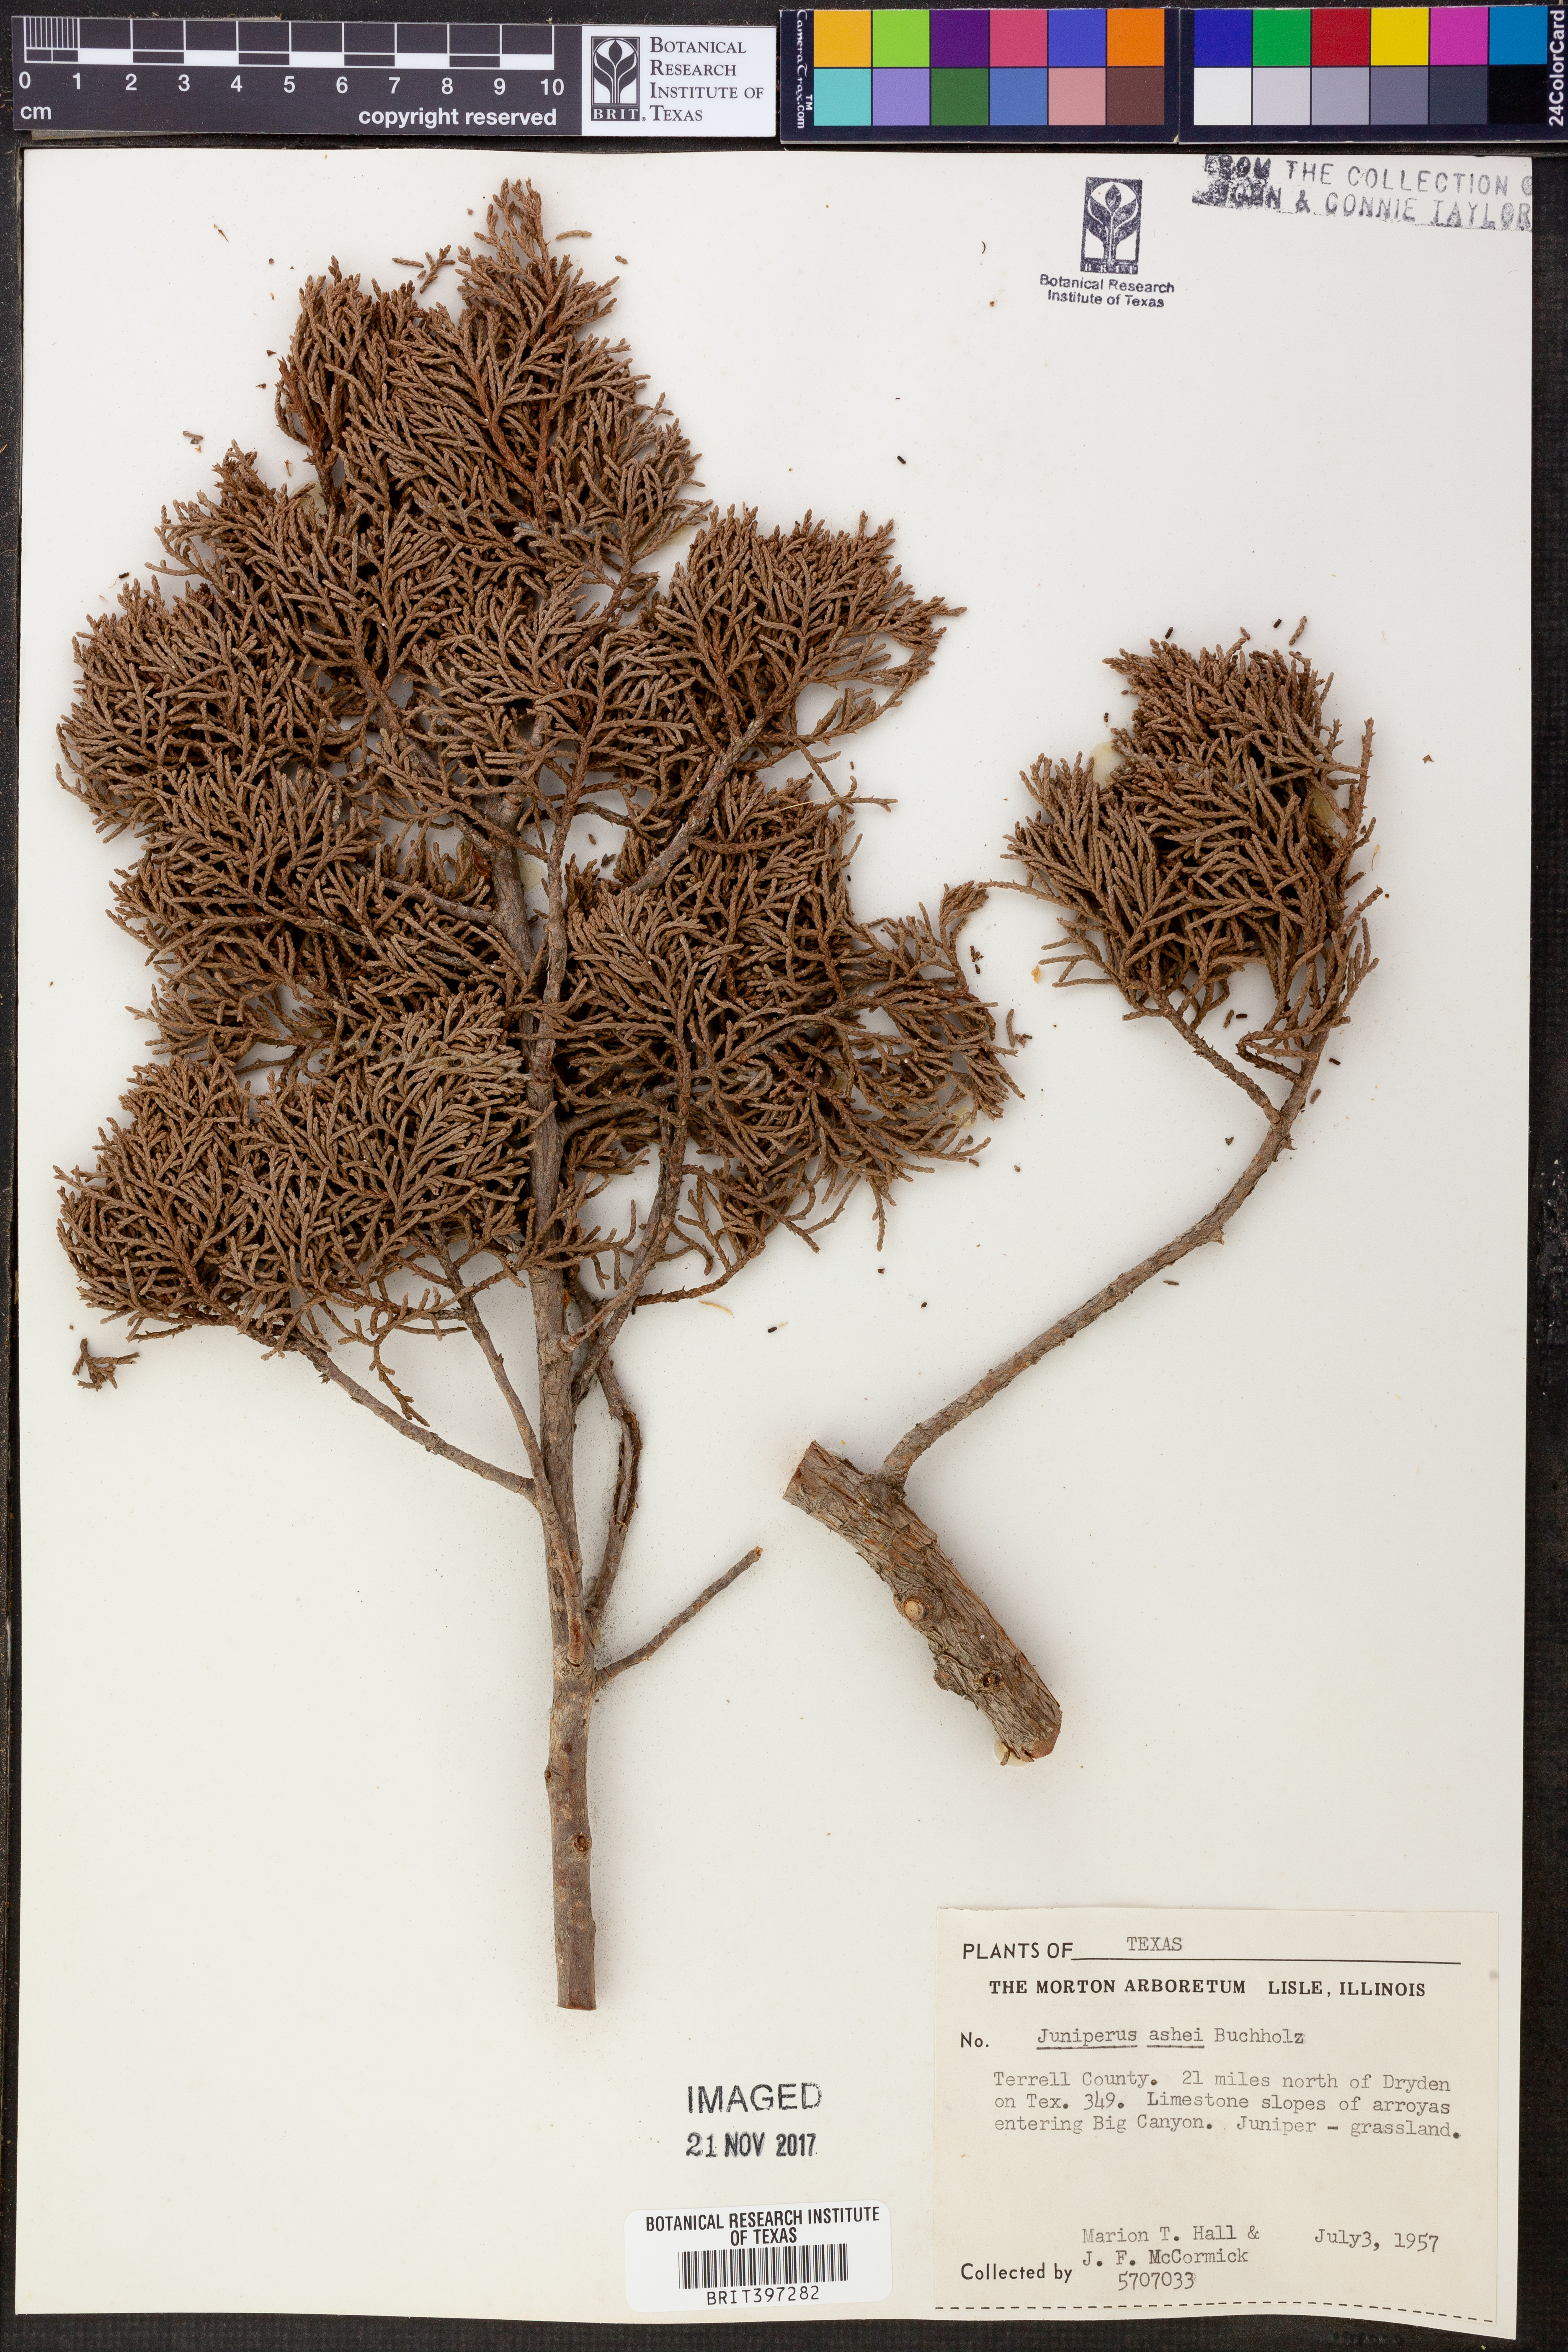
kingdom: Plantae
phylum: Tracheophyta
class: Pinopsida
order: Pinales
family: Cupressaceae
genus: Juniperus
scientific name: Juniperus ashei
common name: Mexican juniper
